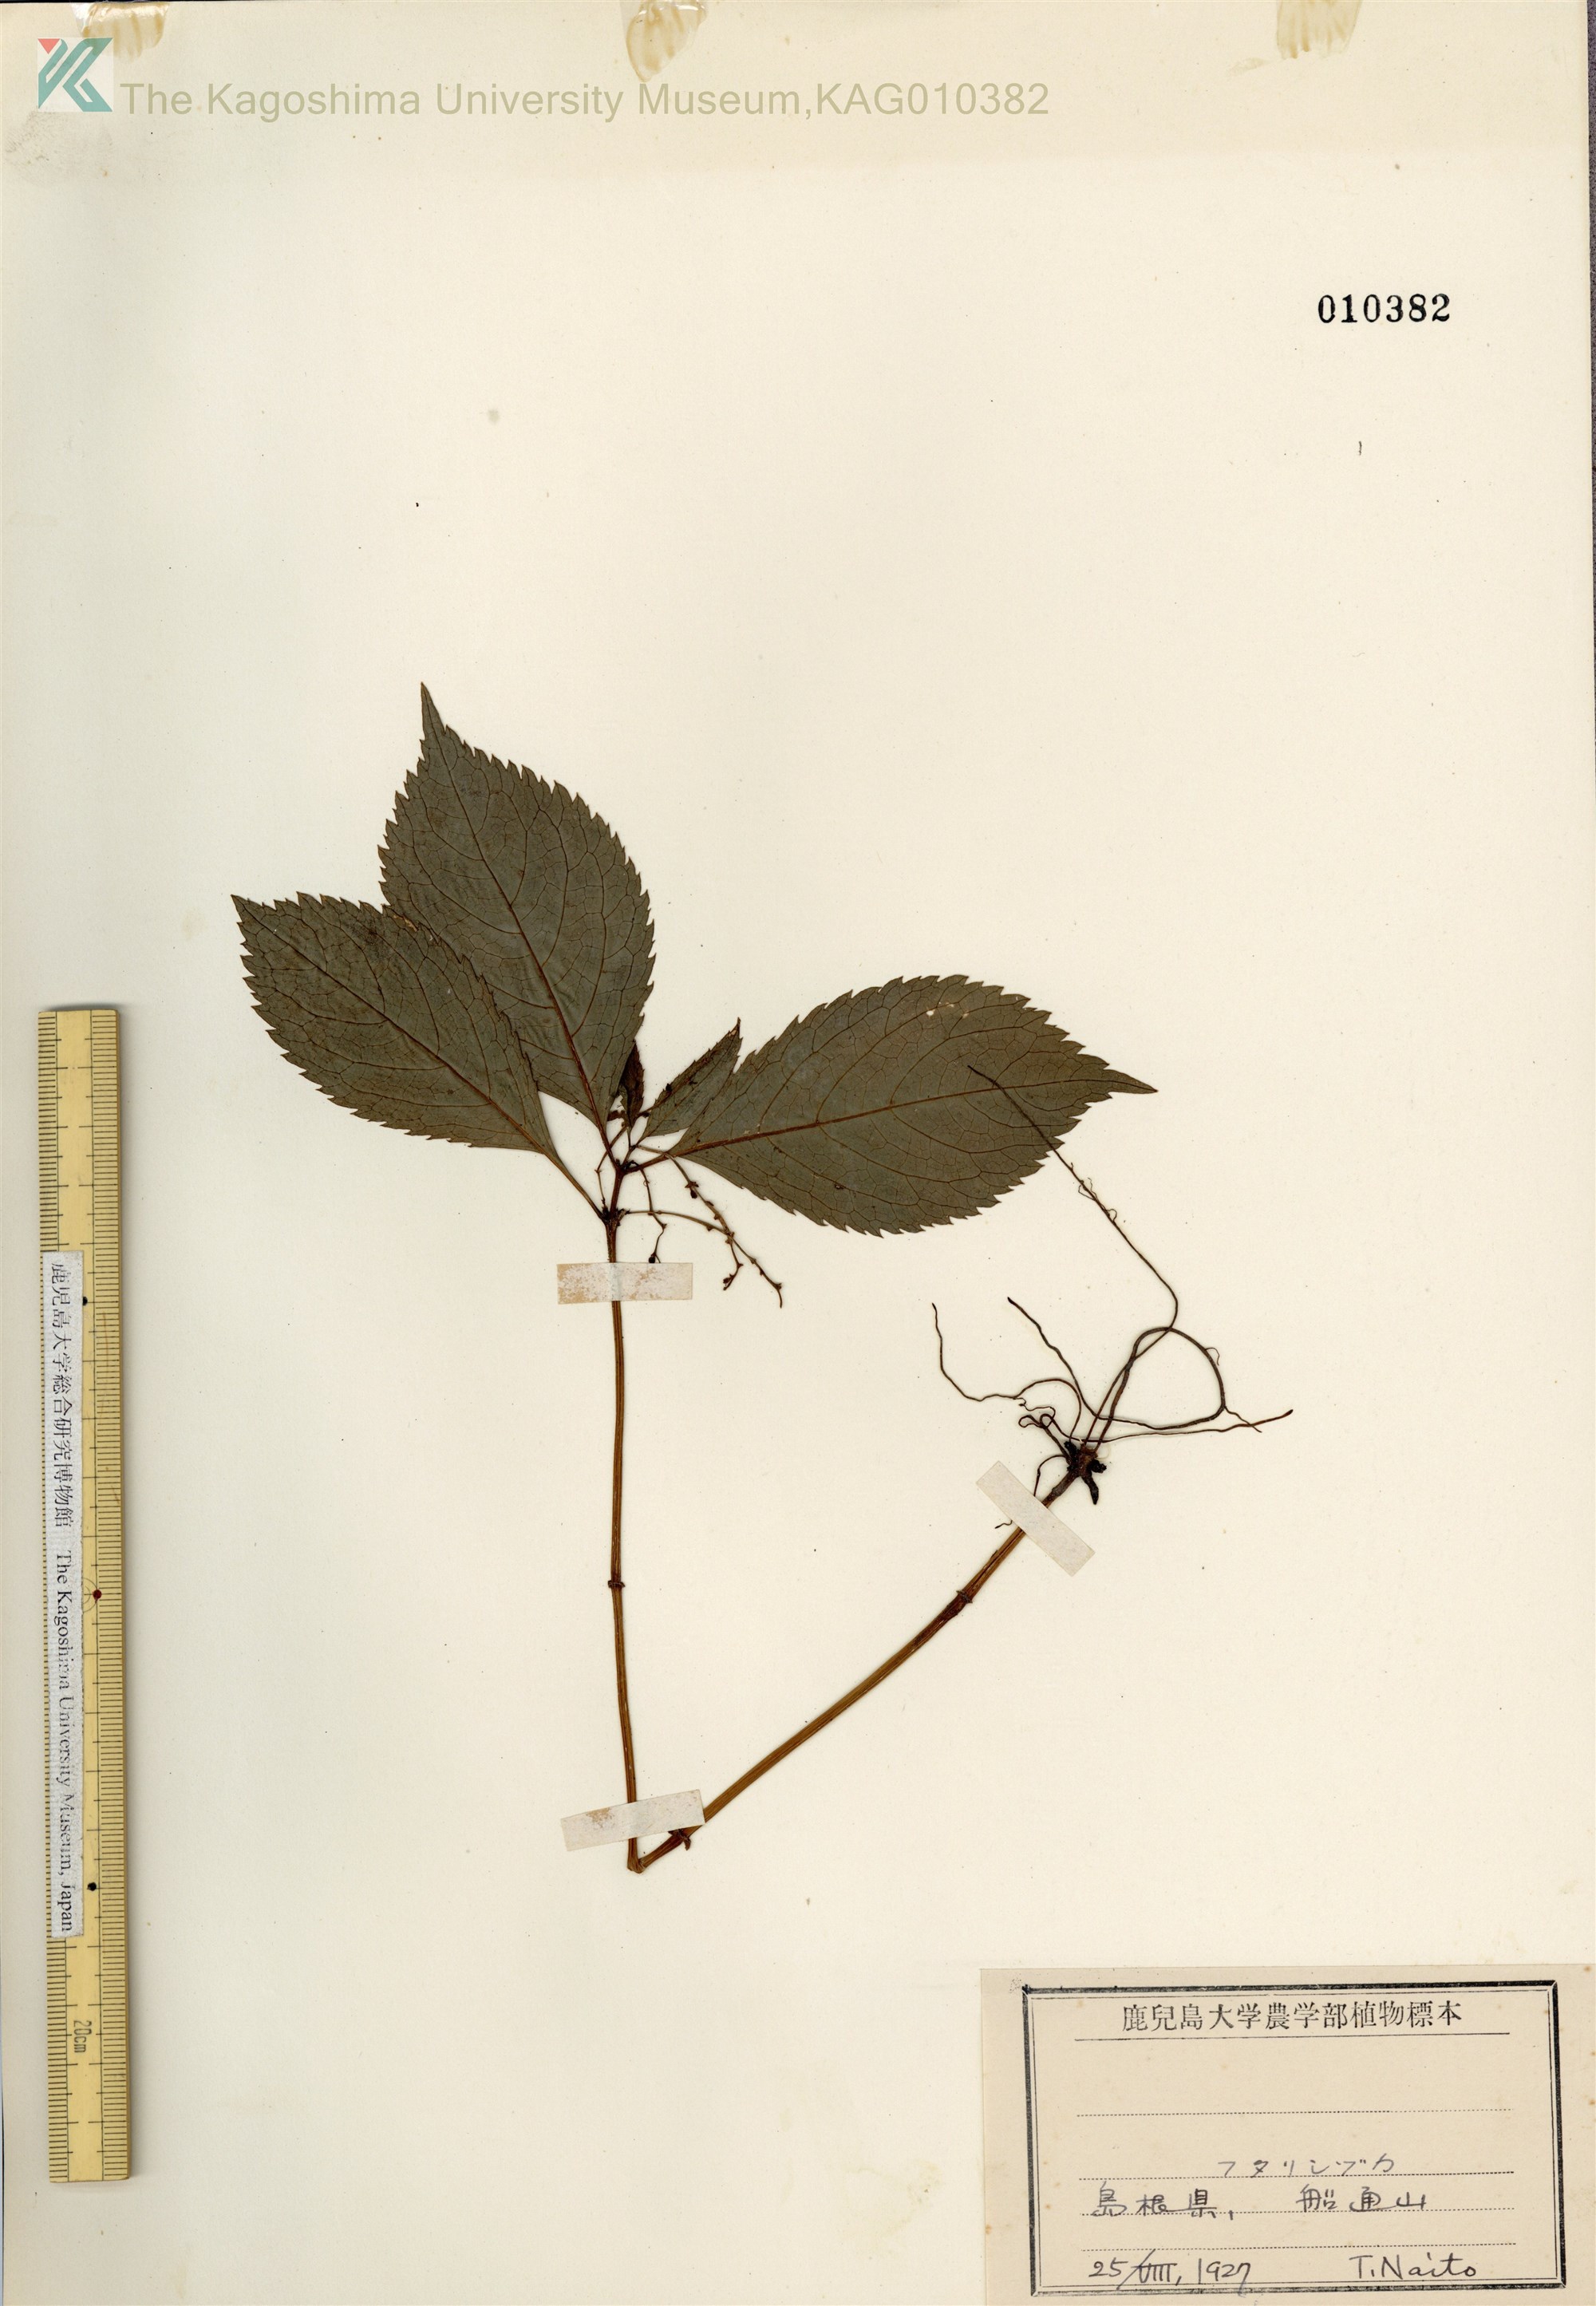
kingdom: Plantae
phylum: Tracheophyta
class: Magnoliopsida
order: Chloranthales
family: Chloranthaceae
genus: Chloranthus
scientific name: Chloranthus serratus
